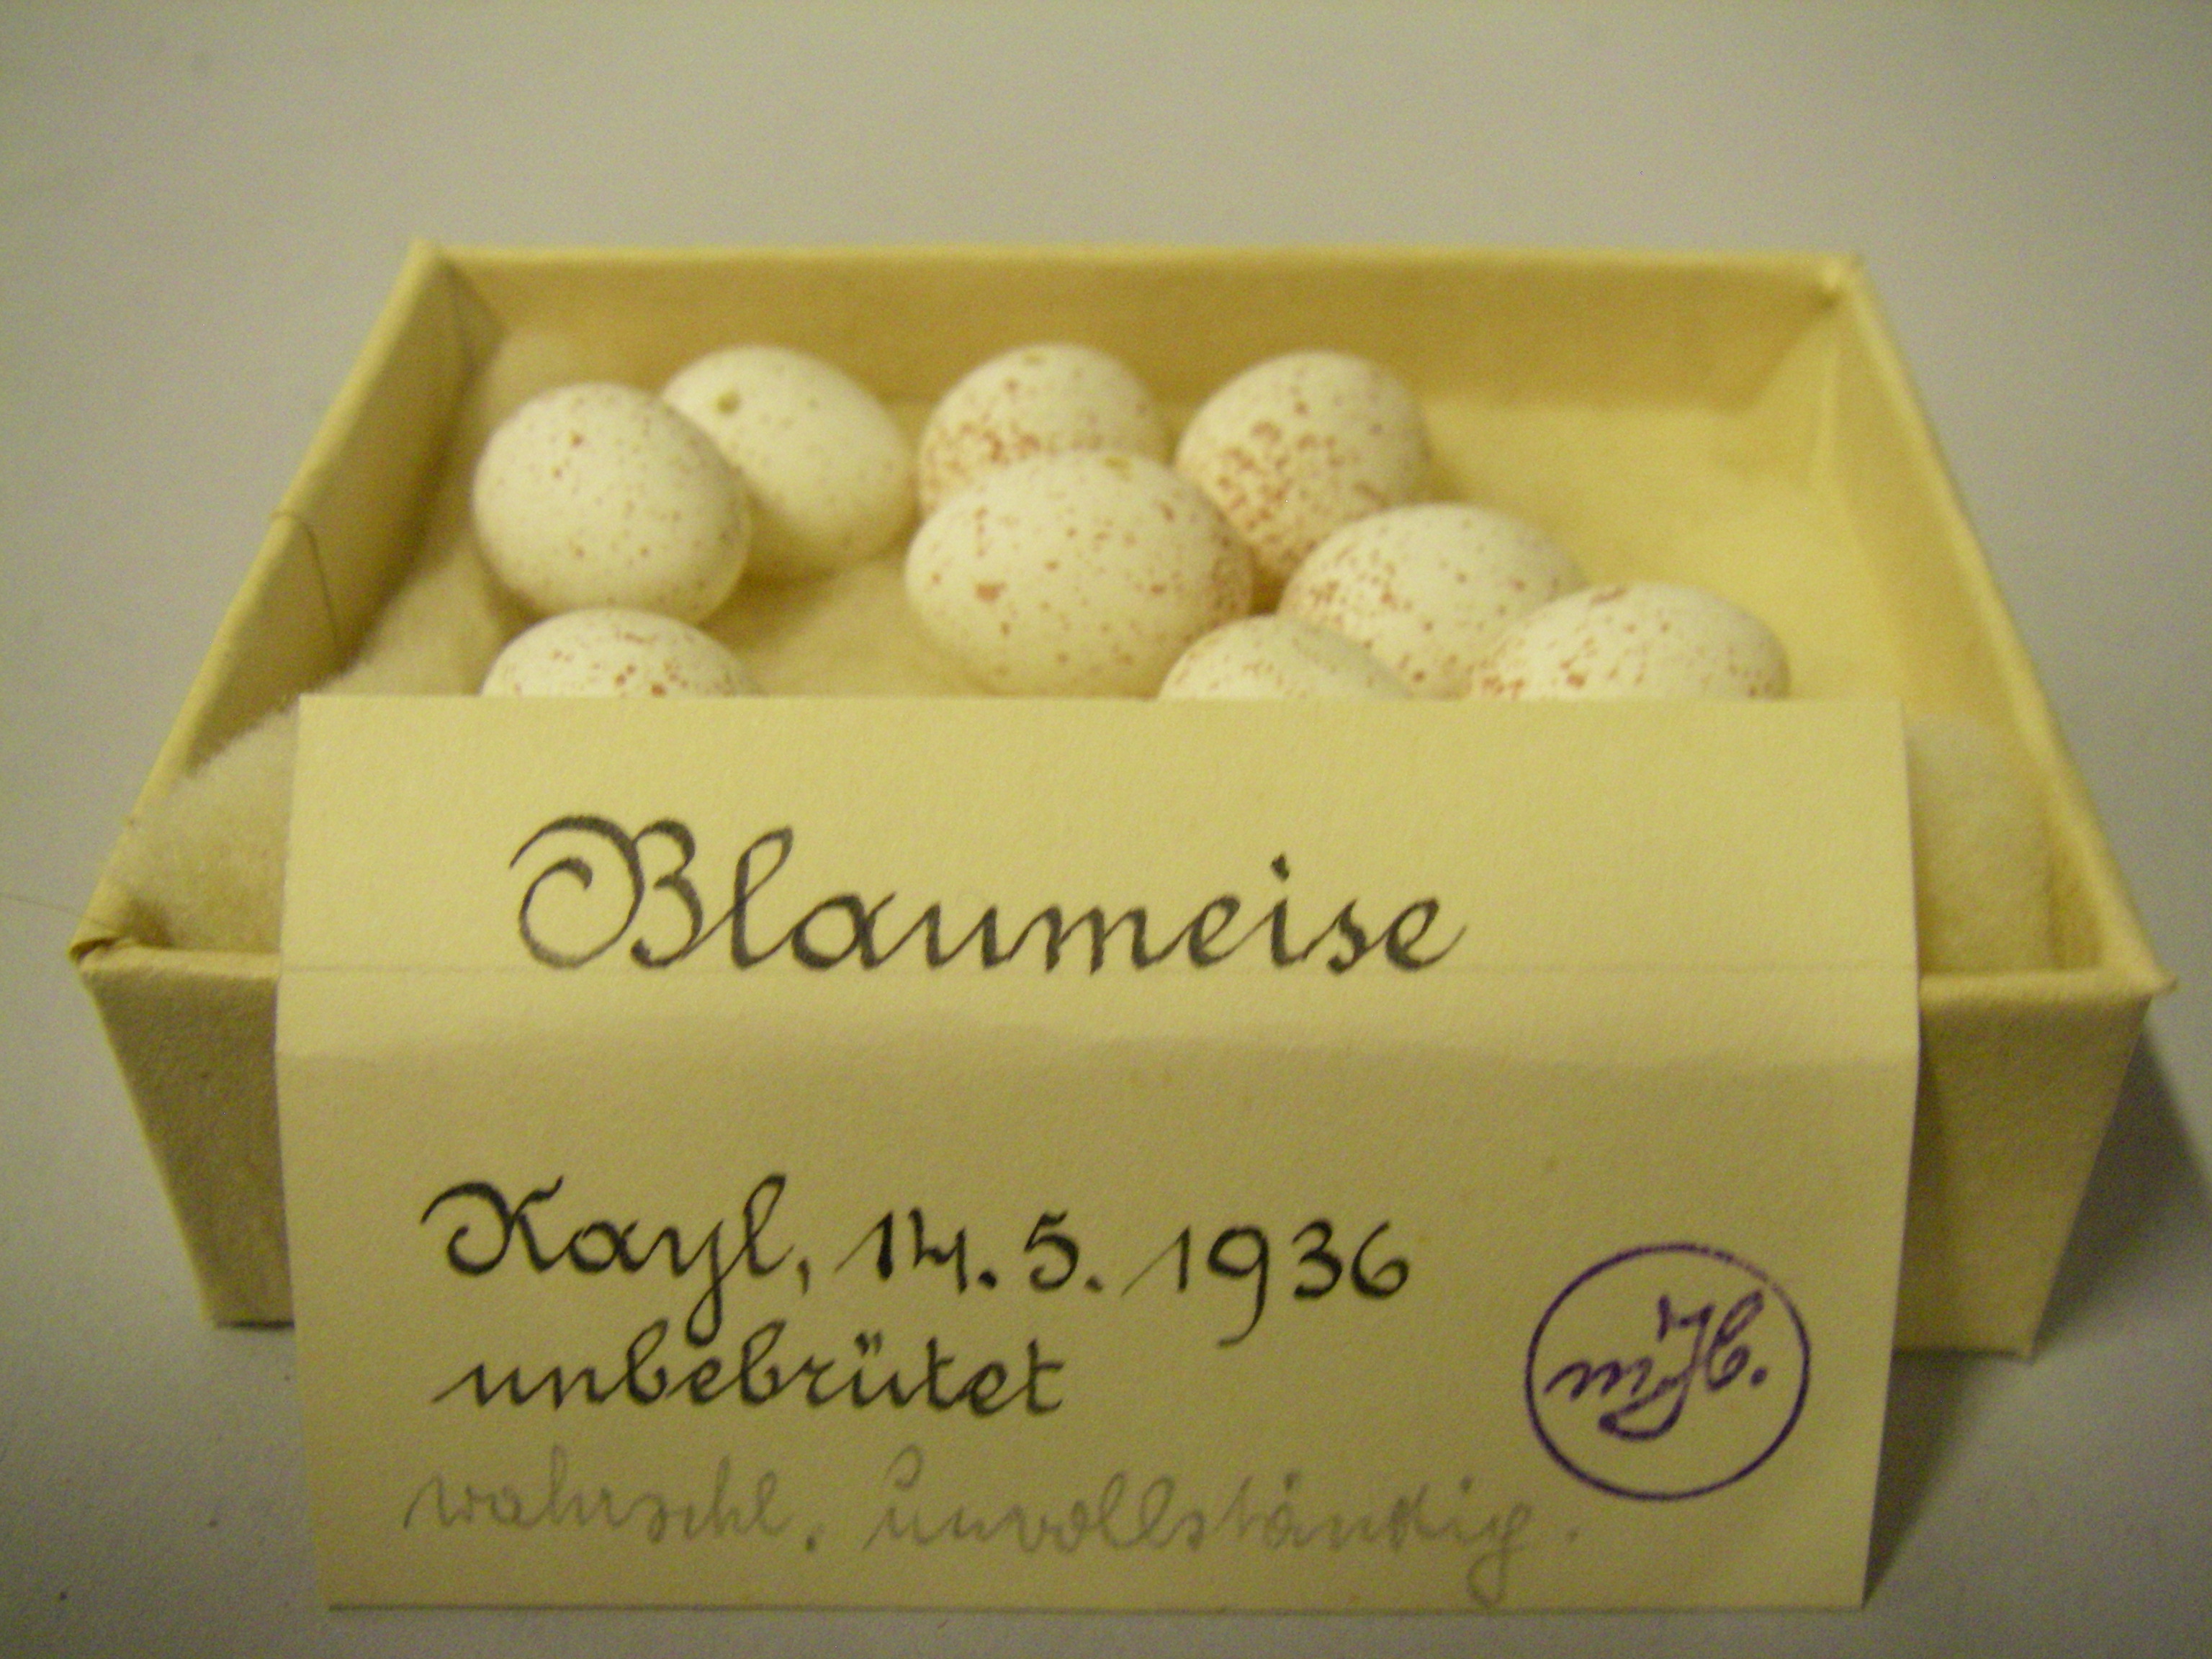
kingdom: Animalia
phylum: Chordata
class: Aves
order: Passeriformes
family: Paridae
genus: Cyanistes
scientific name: Cyanistes caeruleus
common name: Eurasian blue tit
